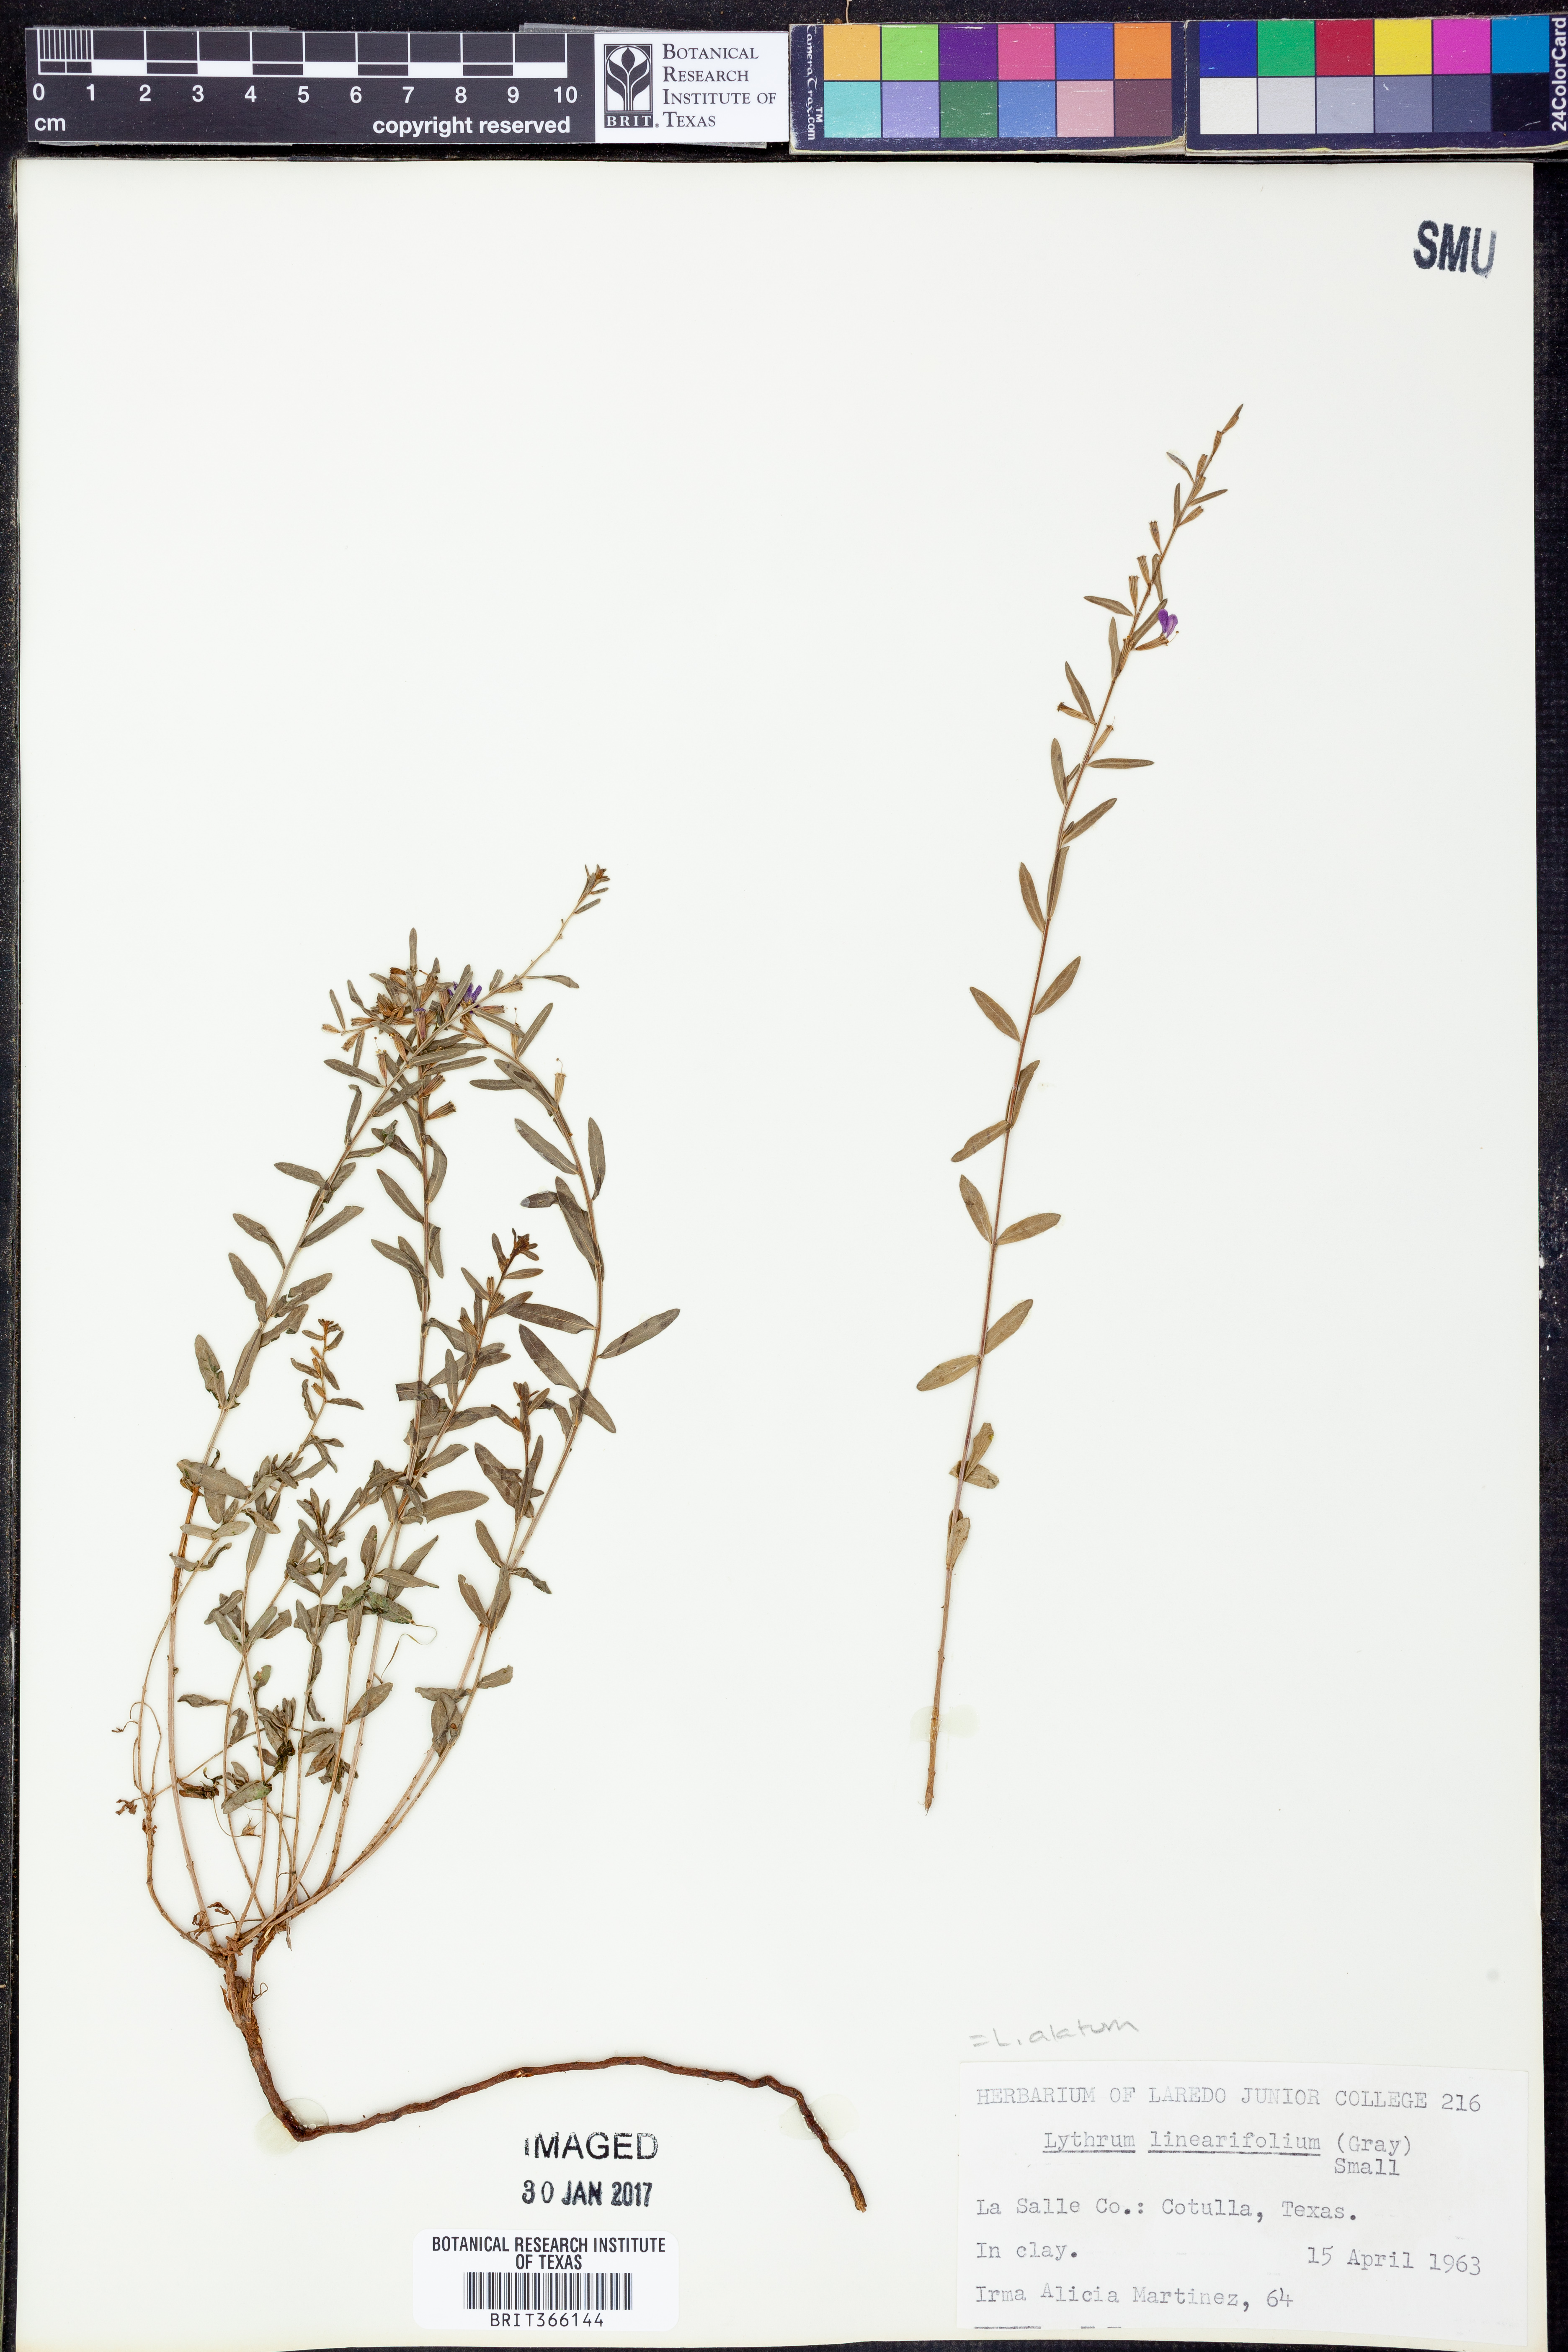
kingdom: Plantae
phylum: Tracheophyta
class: Magnoliopsida
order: Myrtales
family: Lythraceae
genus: Lythrum
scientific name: Lythrum alatum
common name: Winged loosestrife
